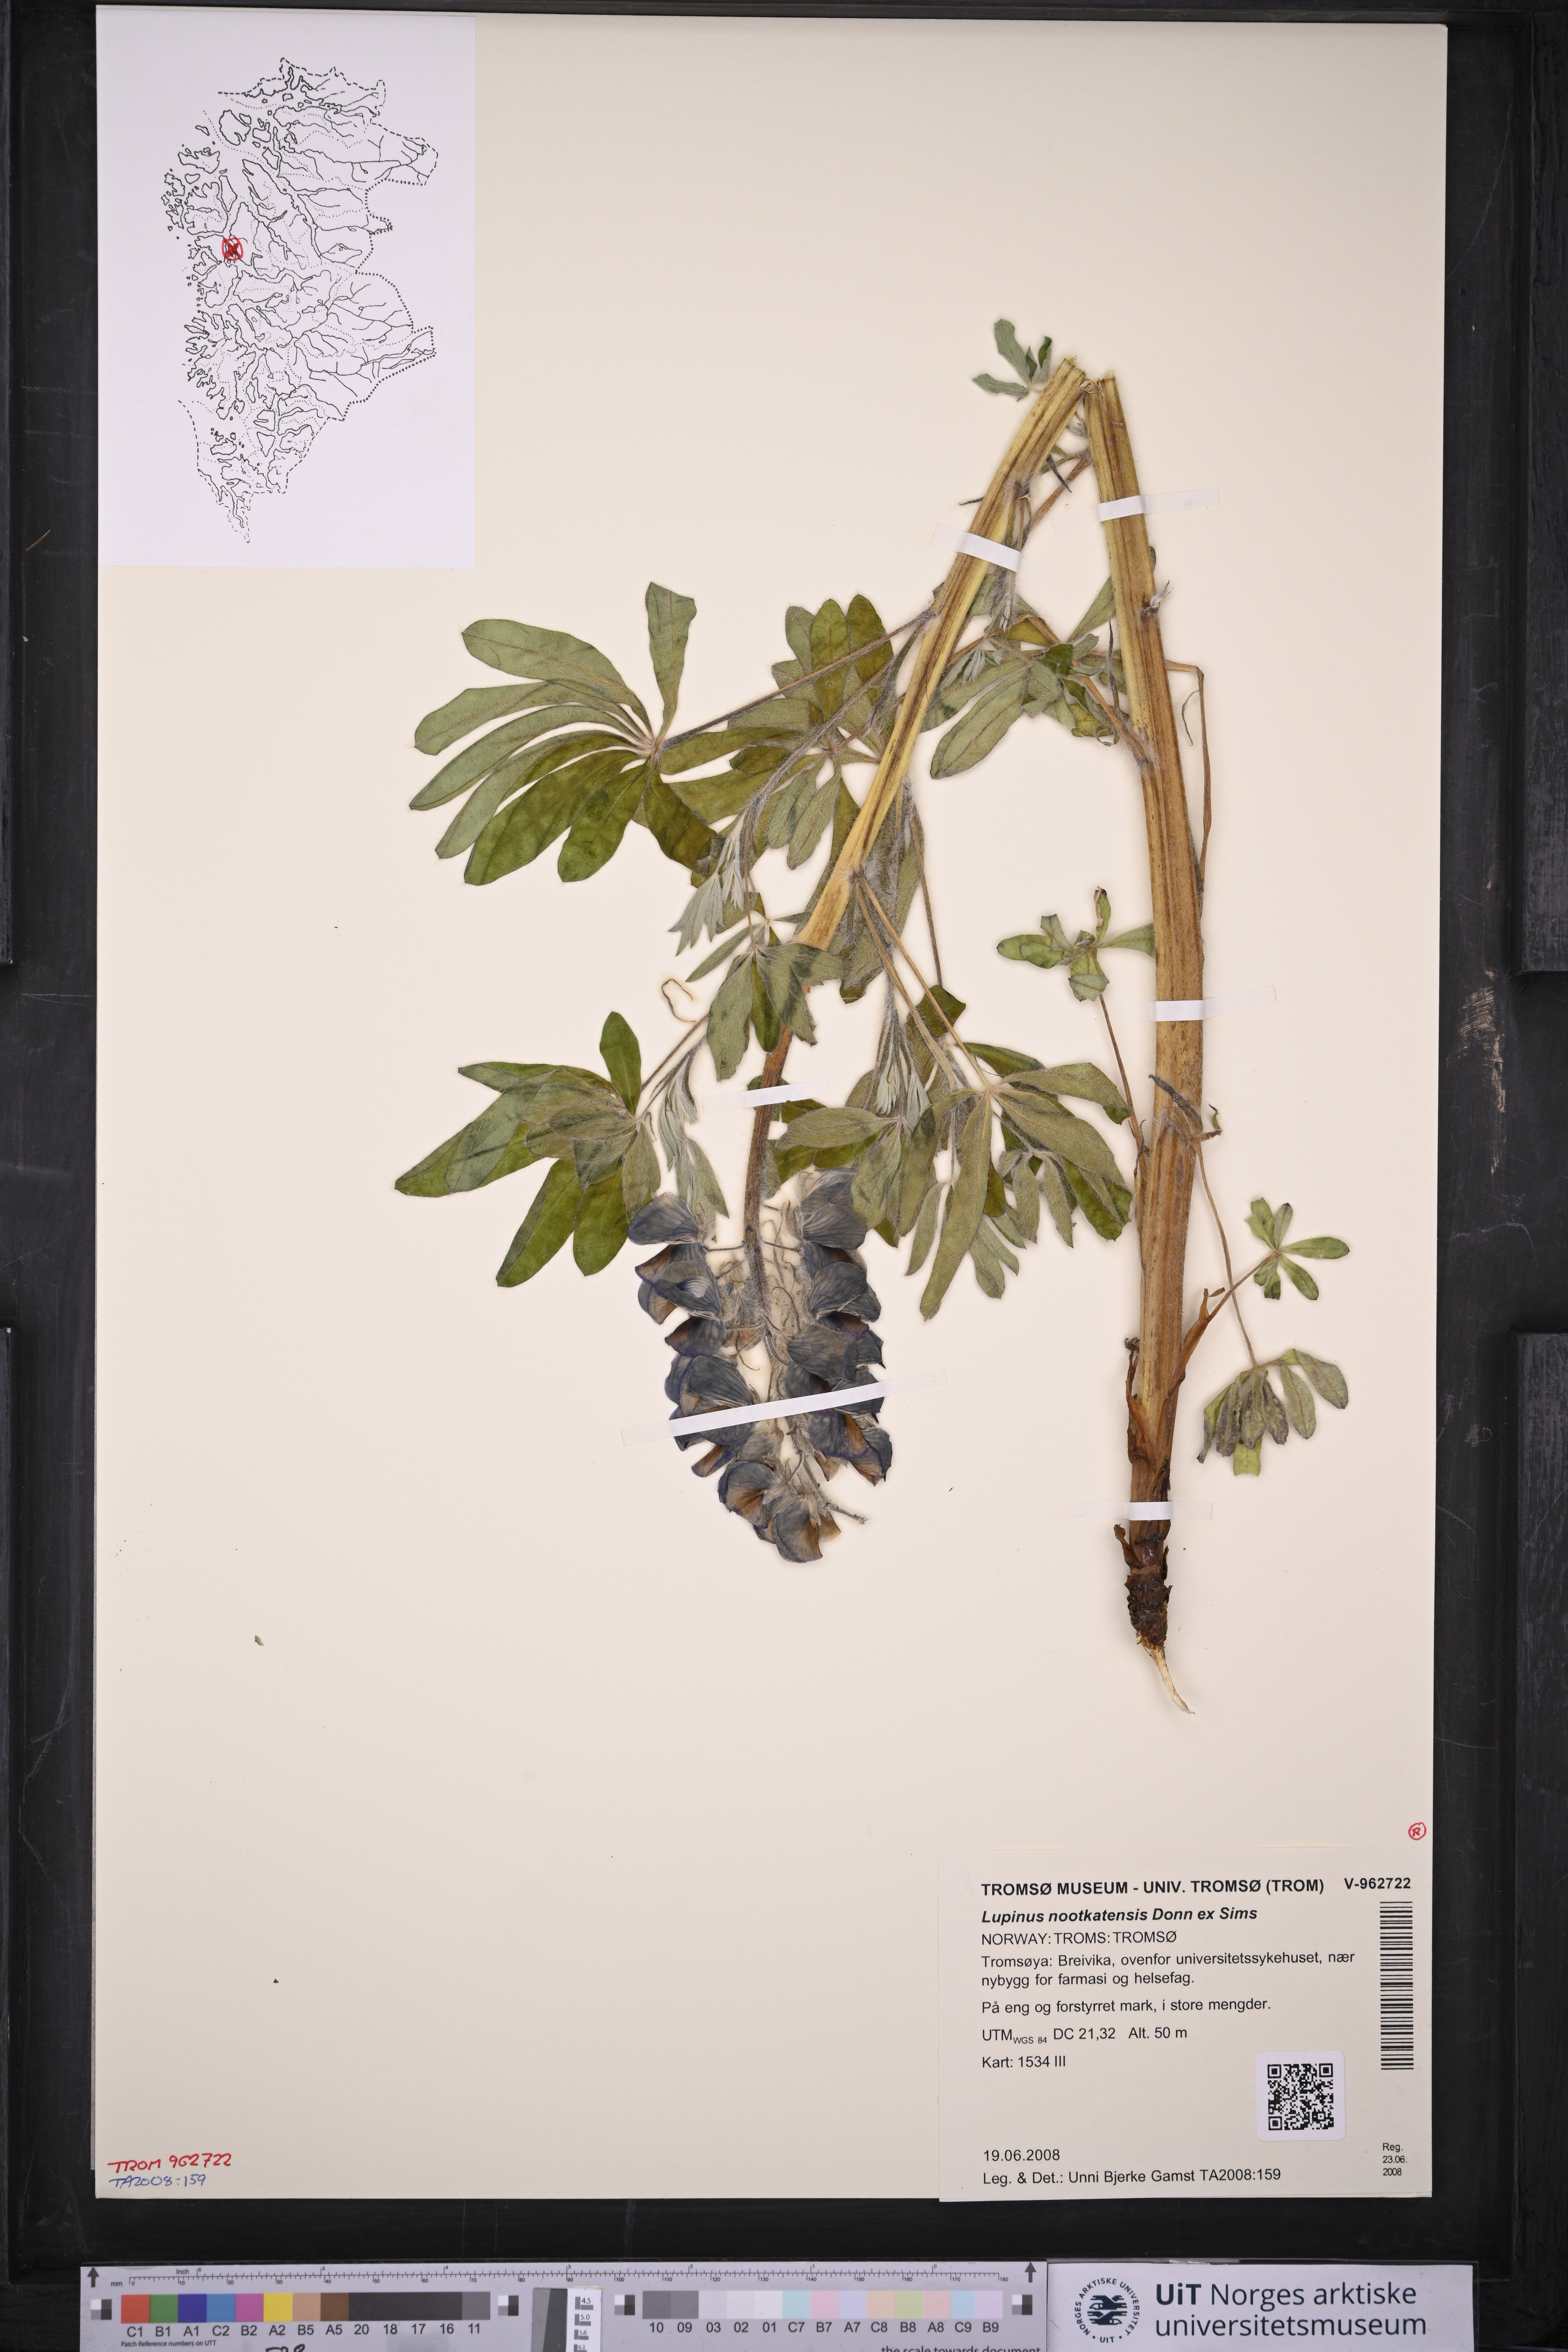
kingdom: Plantae
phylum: Tracheophyta
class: Magnoliopsida
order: Fabales
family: Fabaceae
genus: Lupinus
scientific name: Lupinus nootkatensis
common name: Nootka lupine
